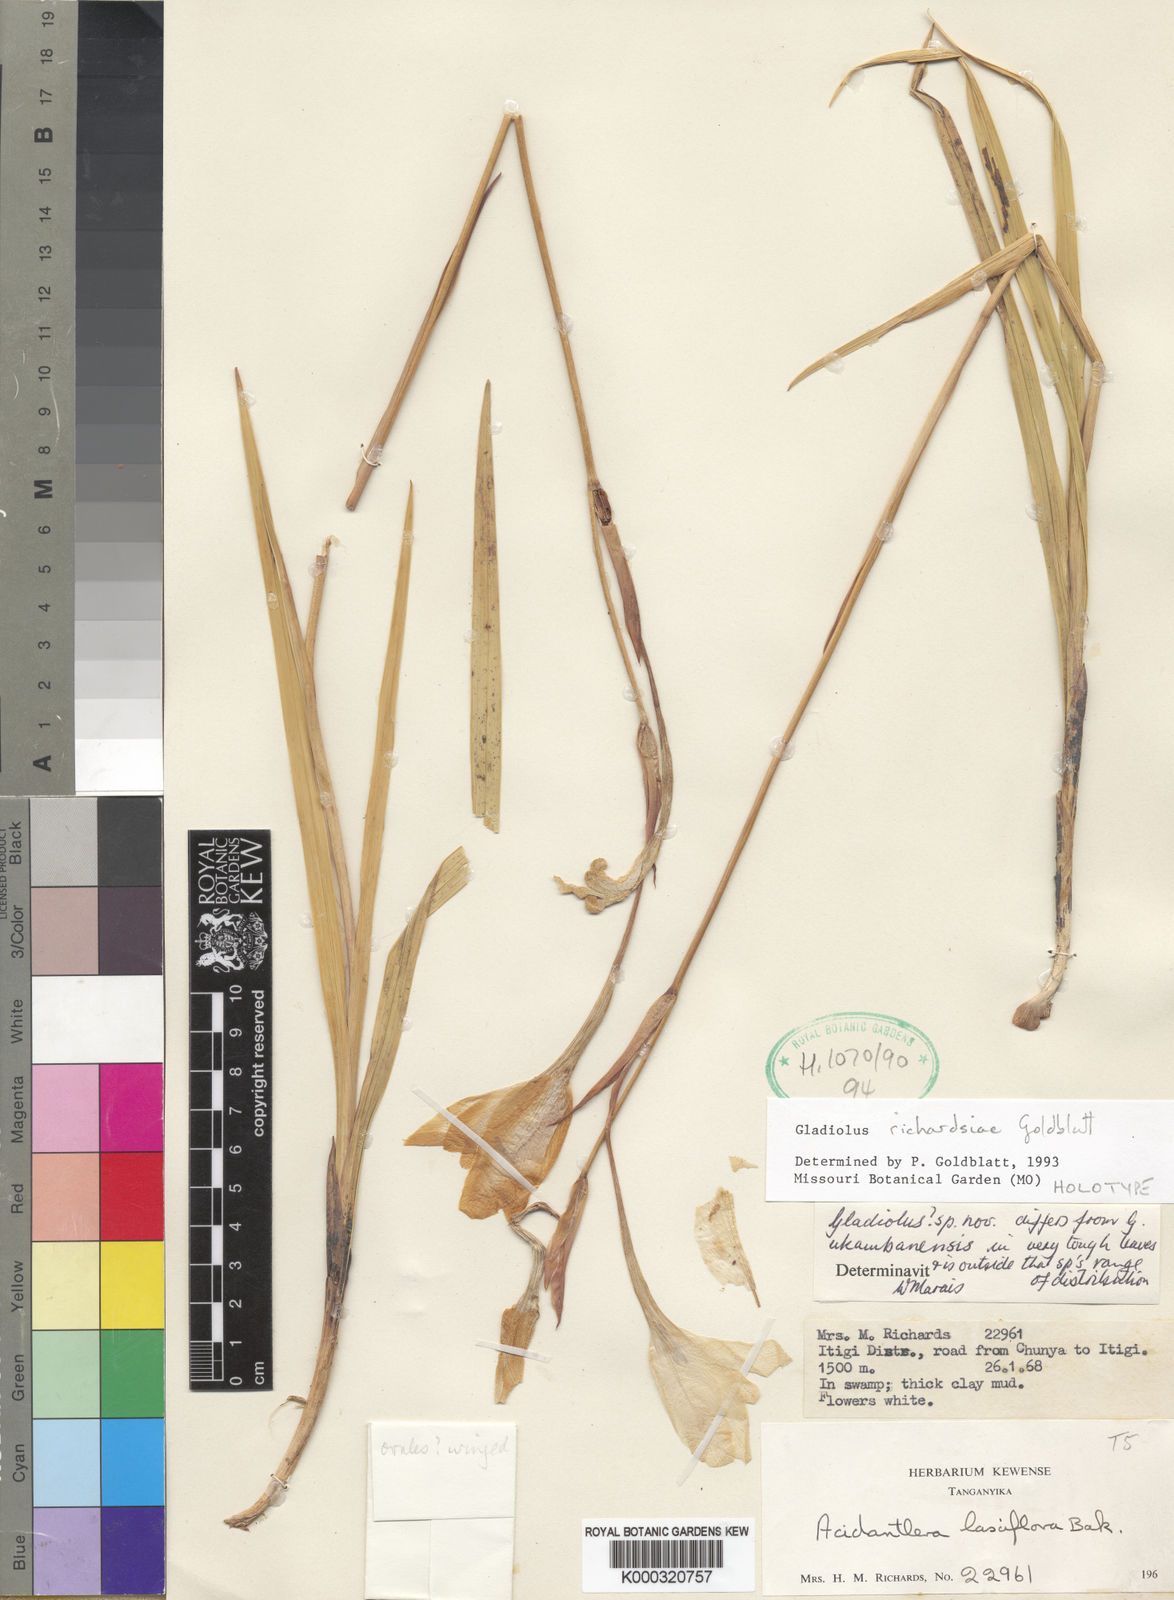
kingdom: Plantae
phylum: Tracheophyta
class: Liliopsida
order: Asparagales
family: Iridaceae
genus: Gladiolus
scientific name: Gladiolus richardsiae
